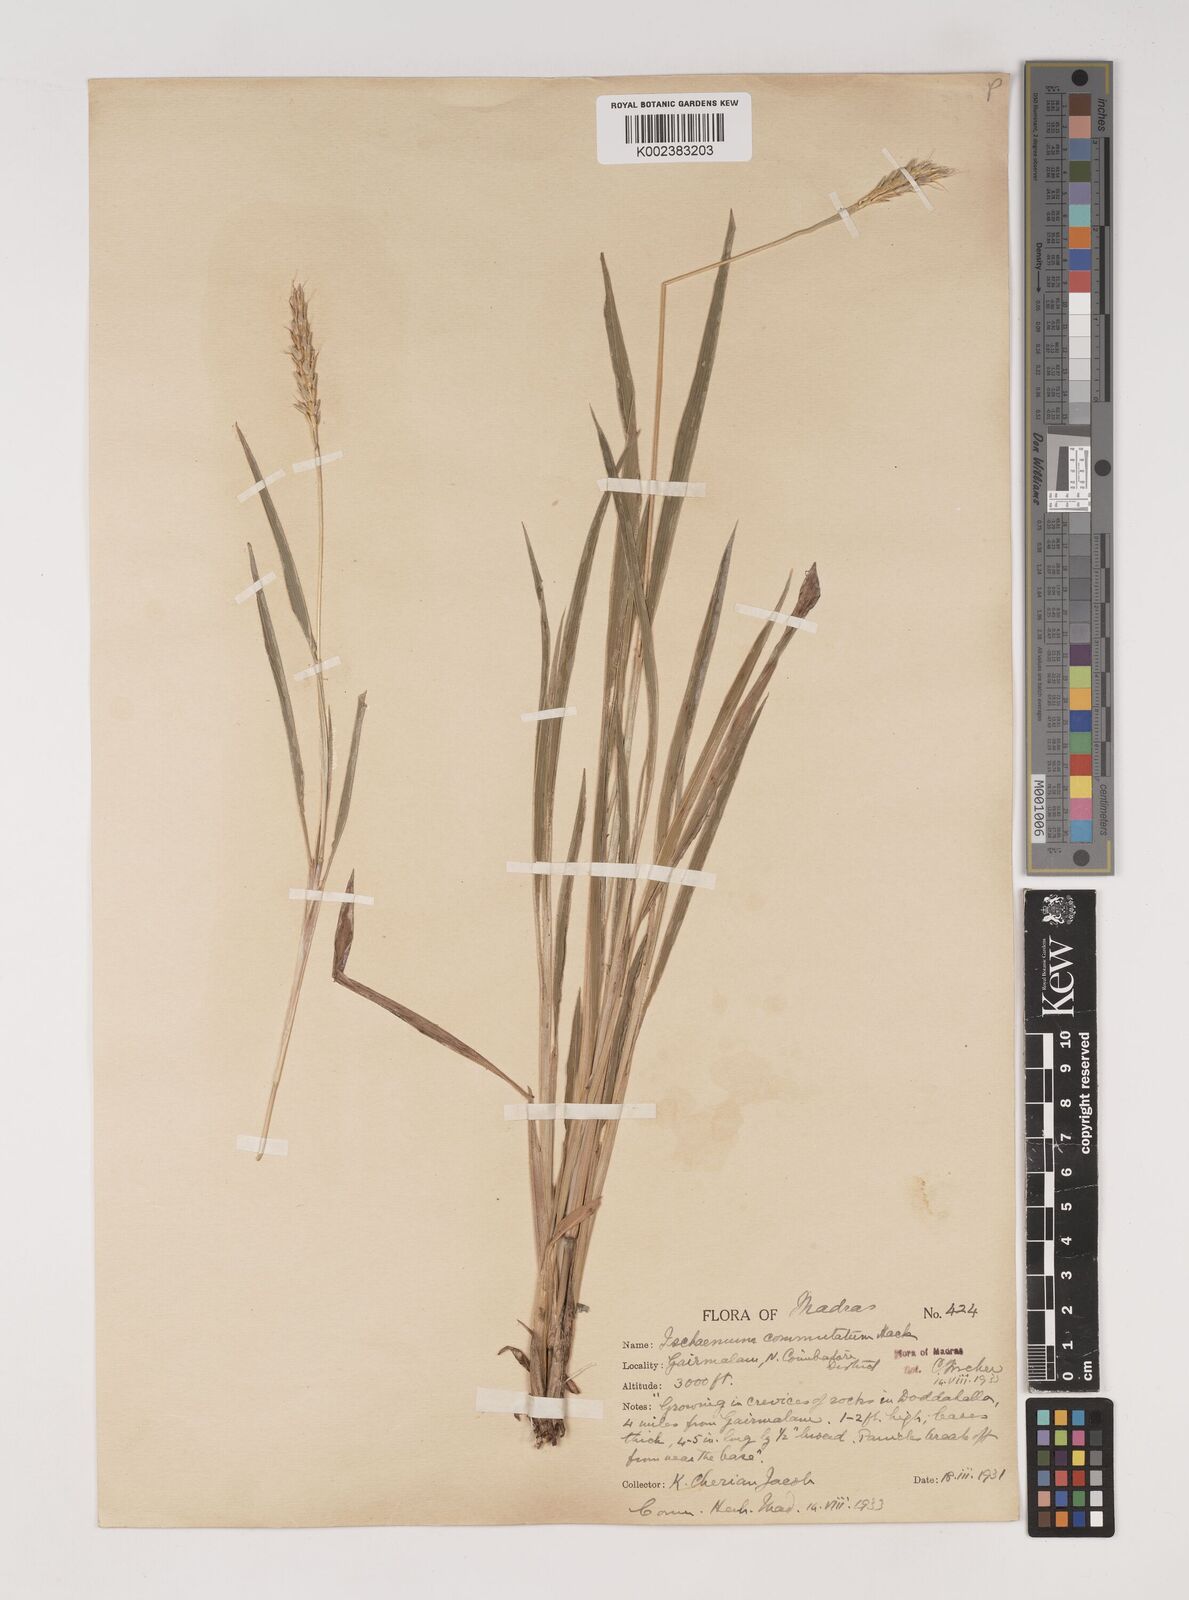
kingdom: Plantae
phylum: Tracheophyta
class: Liliopsida
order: Poales
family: Poaceae
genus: Ischaemum
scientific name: Ischaemum commutatum
